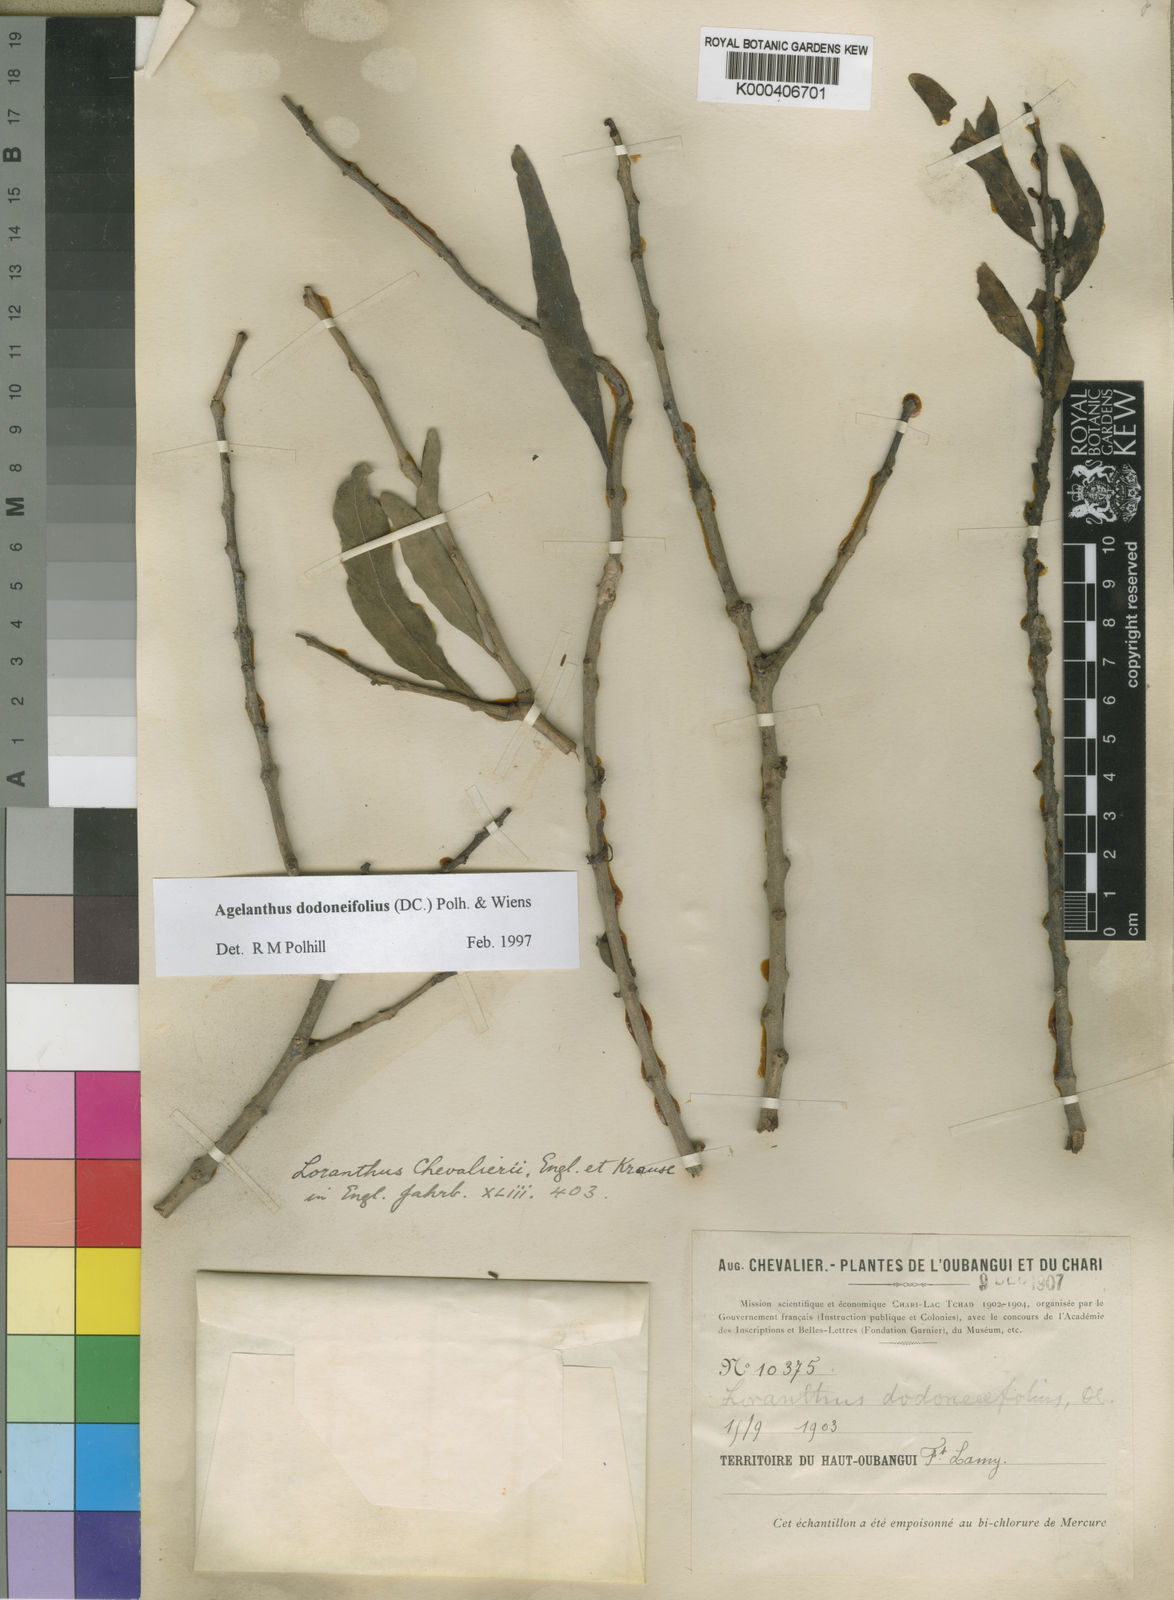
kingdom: Plantae
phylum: Tracheophyta
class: Magnoliopsida
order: Santalales
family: Loranthaceae
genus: Agelanthus
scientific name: Agelanthus dodoneifolius
